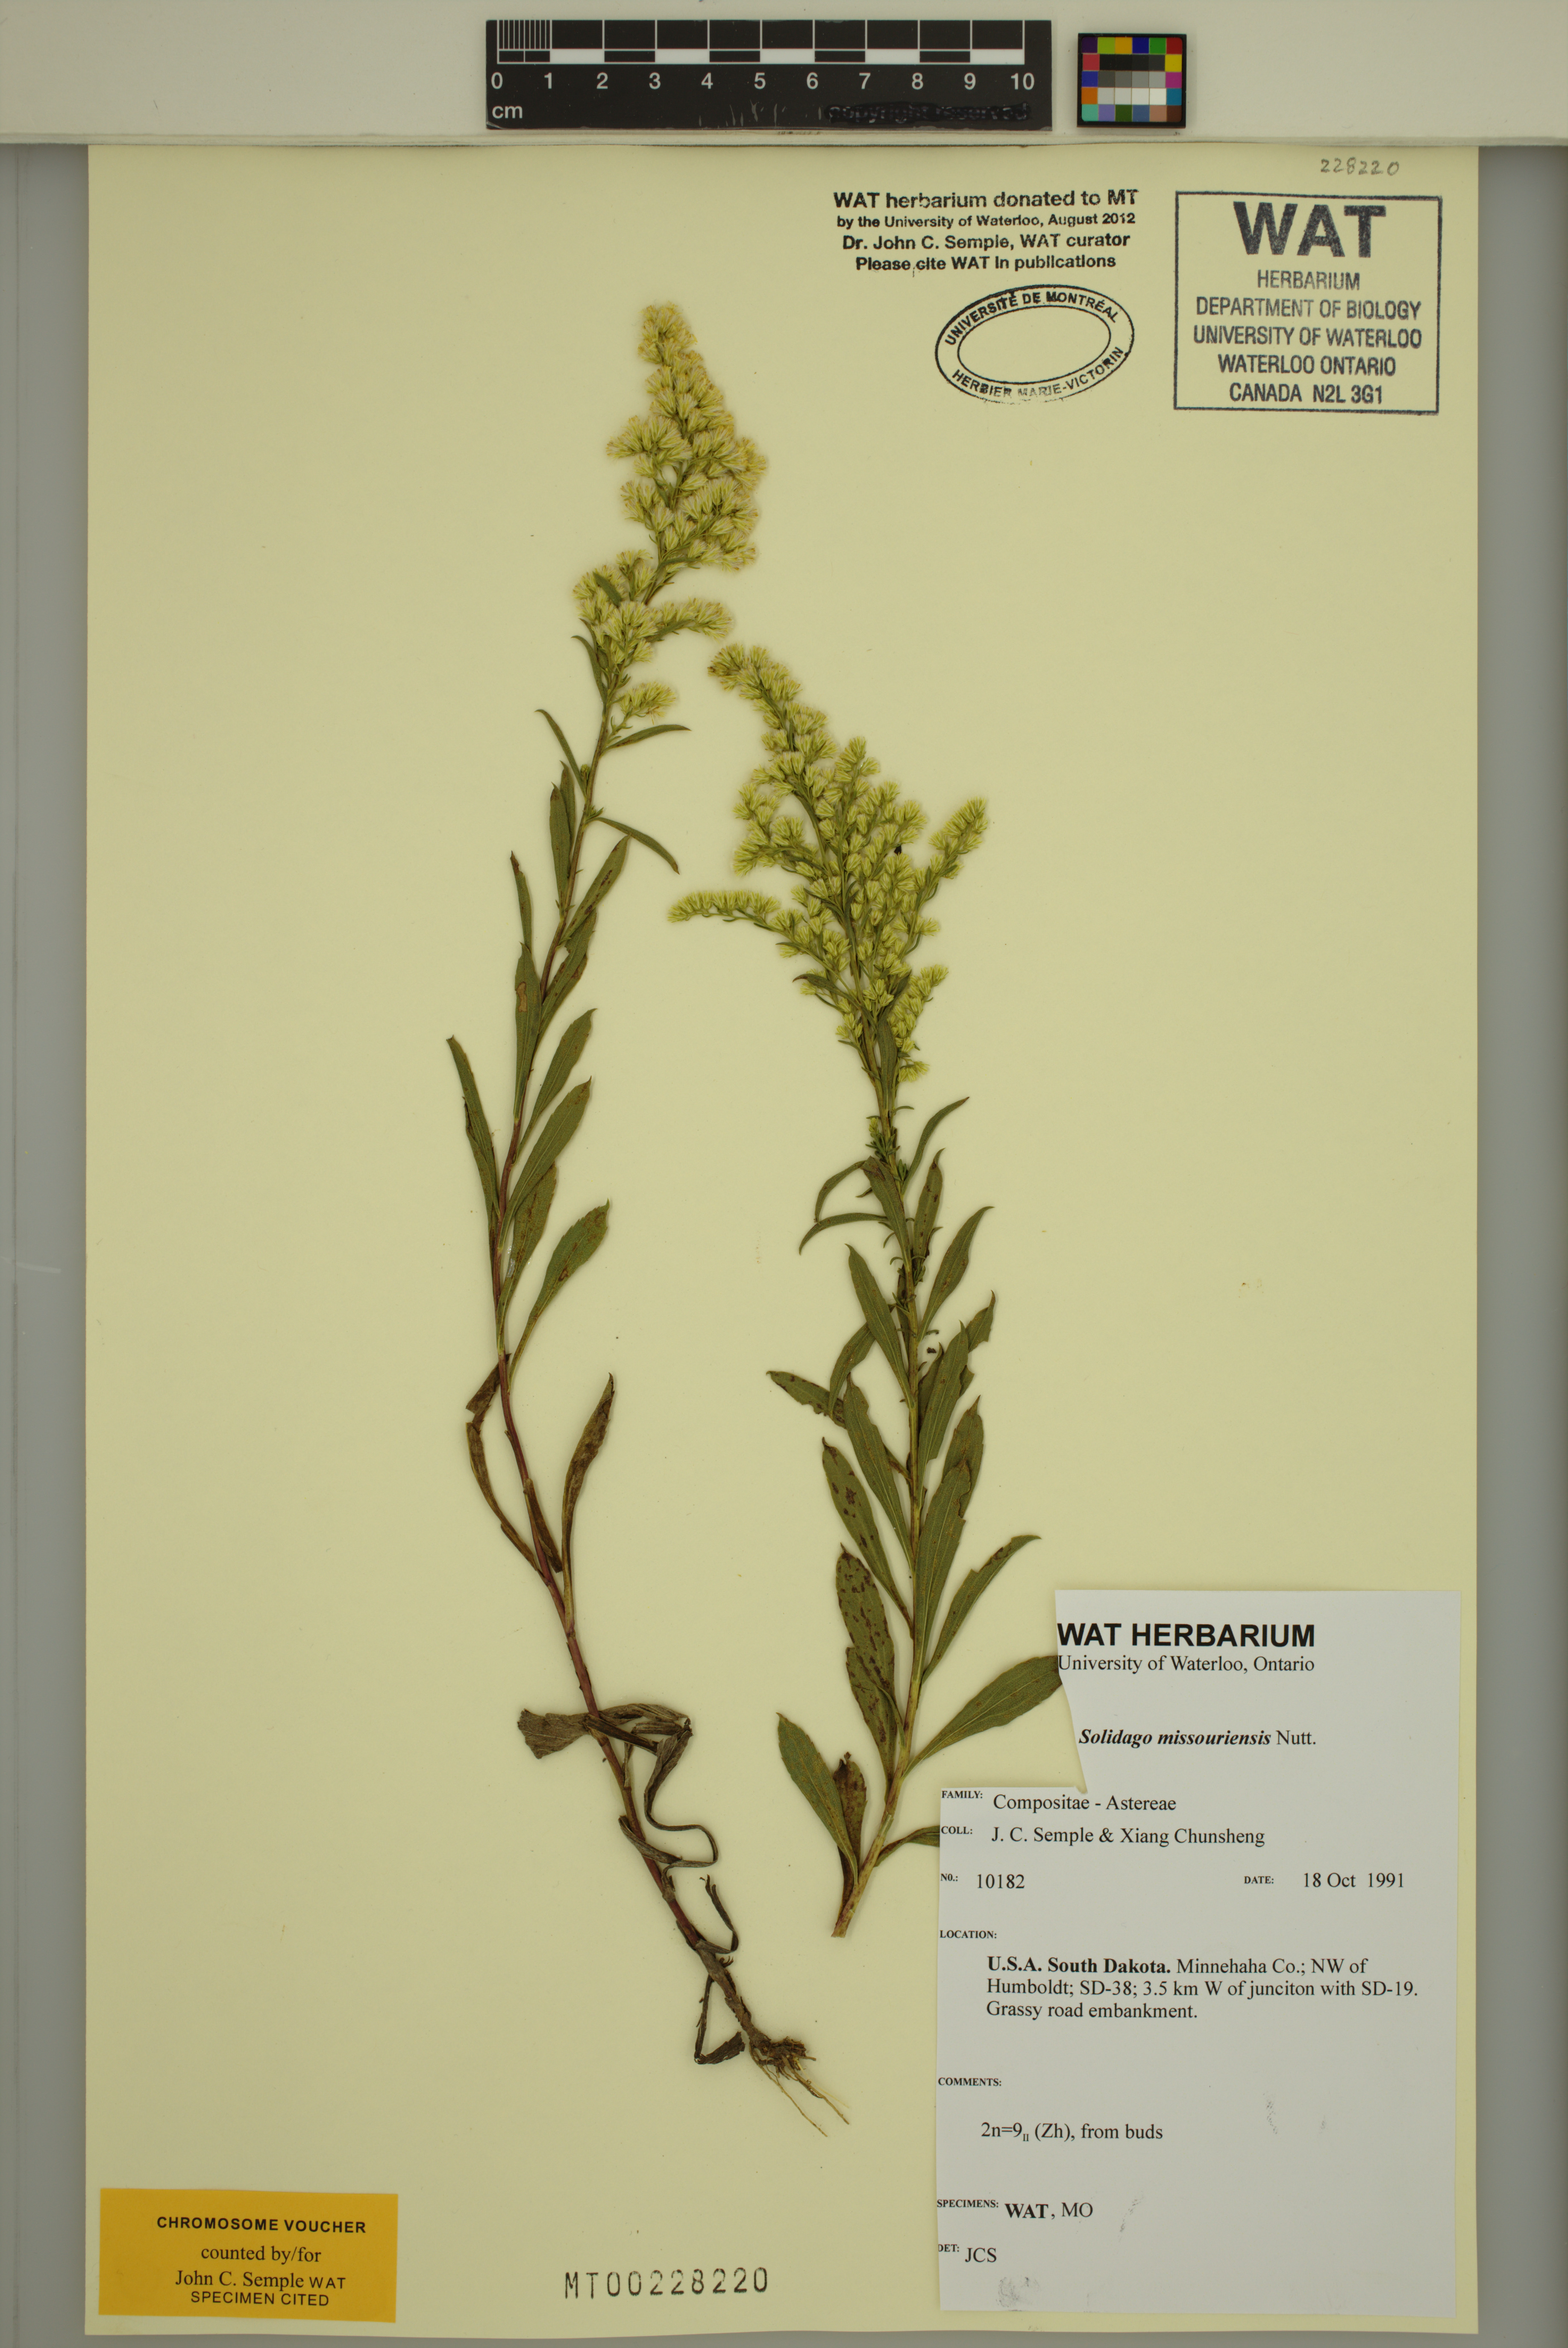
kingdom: Plantae
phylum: Tracheophyta
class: Magnoliopsida
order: Asterales
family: Asteraceae
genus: Solidago
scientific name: Solidago missouriensis
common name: Prairie goldenrod
